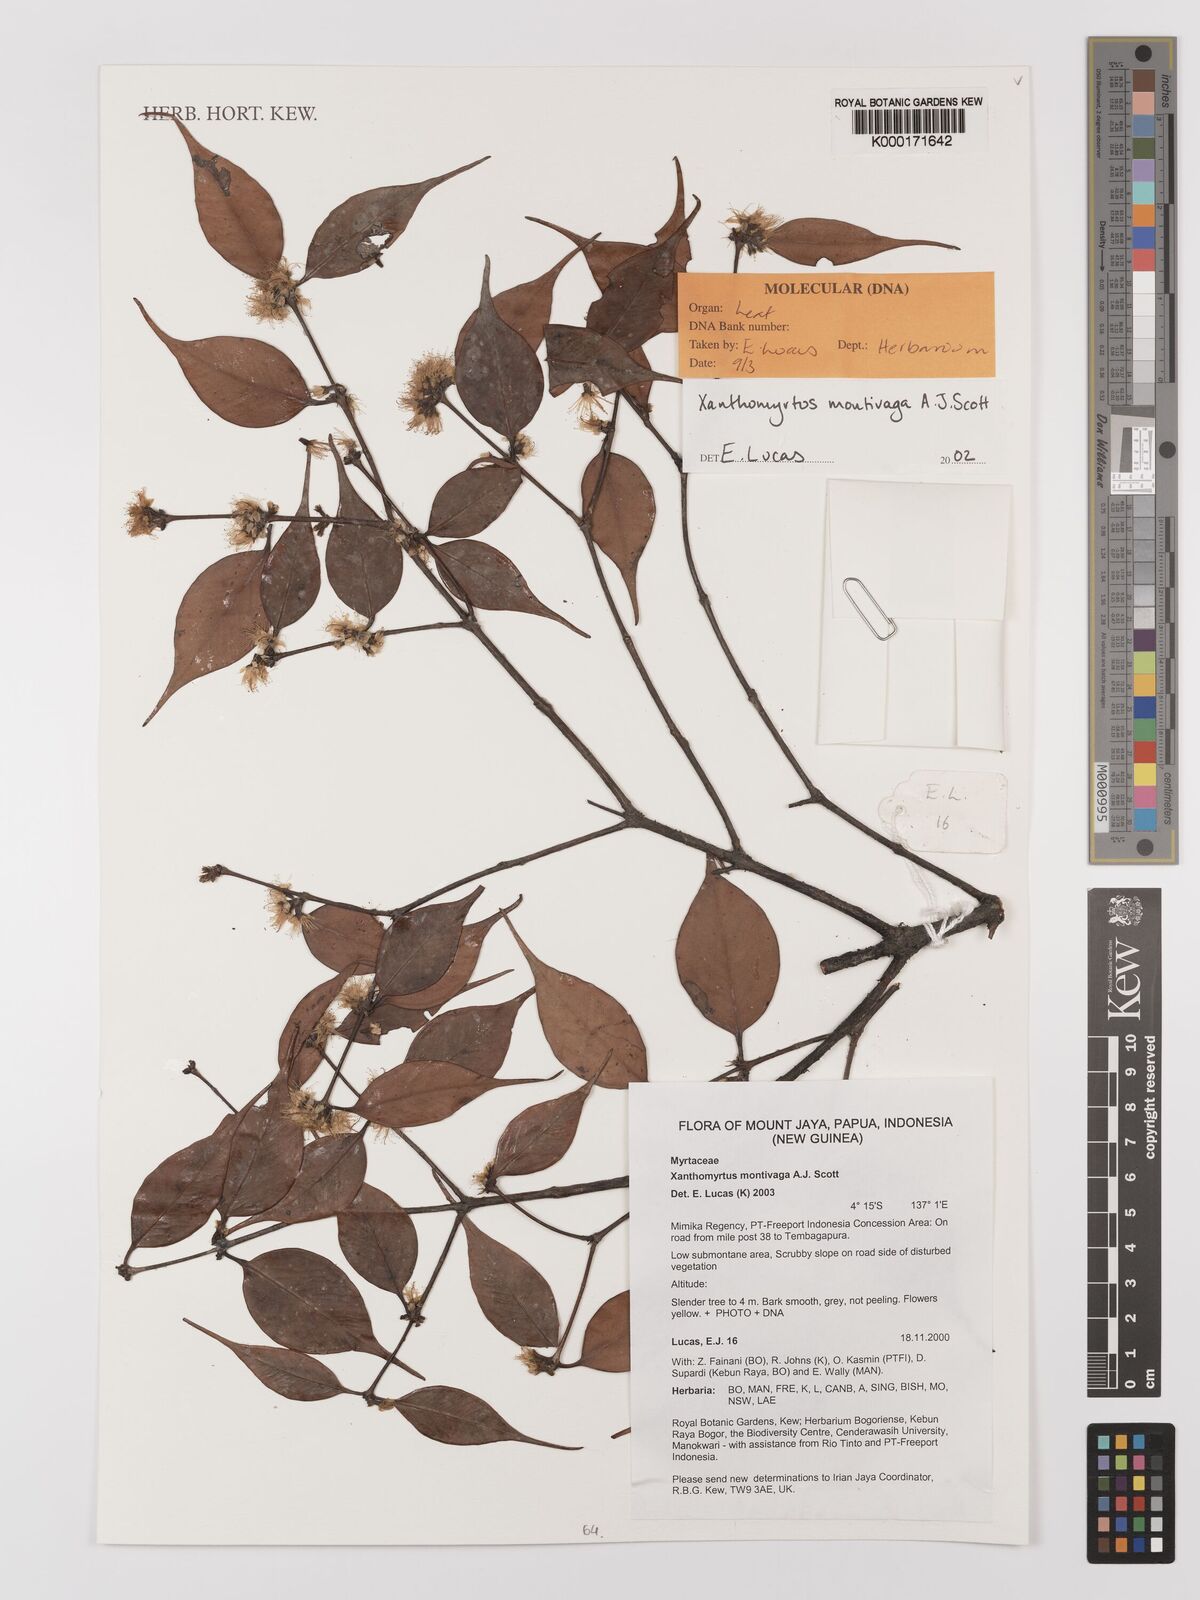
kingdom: Plantae
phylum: Tracheophyta
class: Magnoliopsida
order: Myrtales
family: Myrtaceae
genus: Xanthomyrtus
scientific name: Xanthomyrtus montivaga
